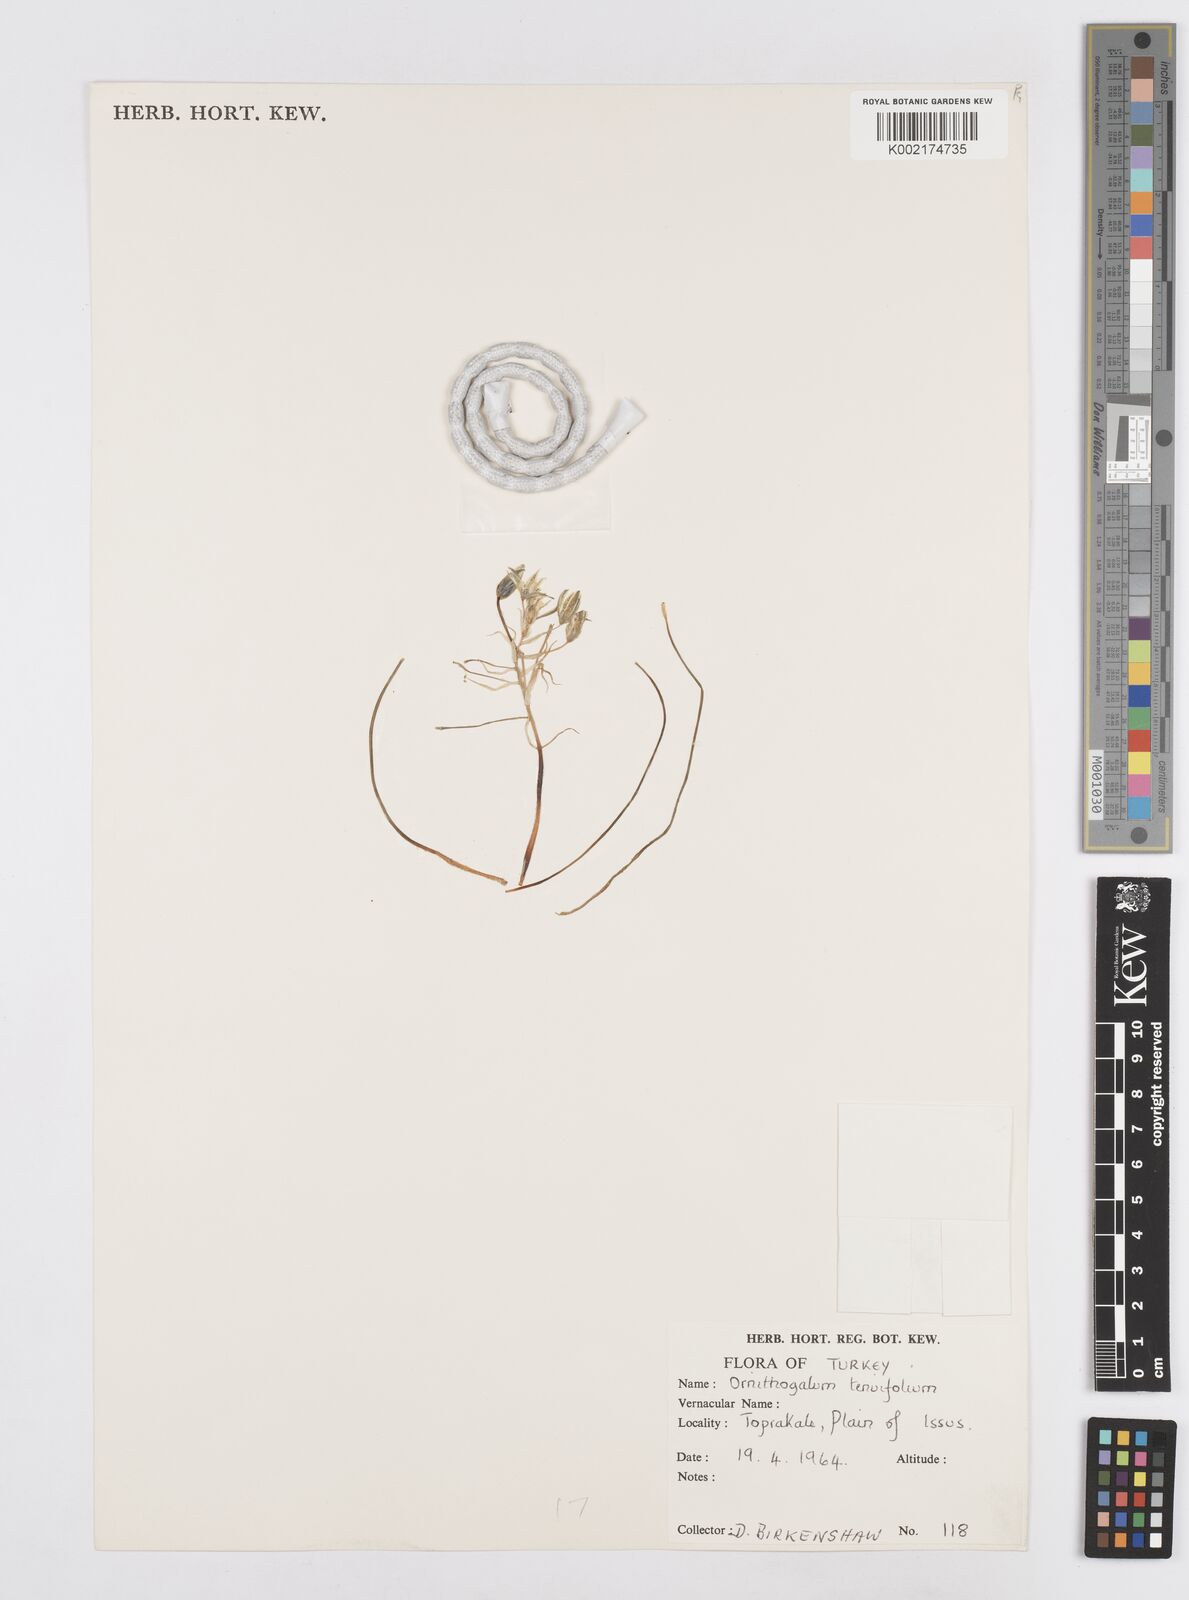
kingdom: Plantae
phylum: Tracheophyta
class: Liliopsida
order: Asparagales
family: Asparagaceae
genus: Ornithogalum
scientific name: Ornithogalum gussonei
